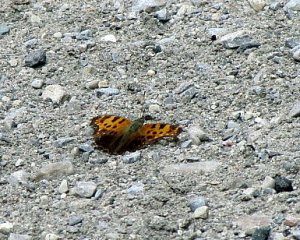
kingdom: Animalia
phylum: Arthropoda
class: Insecta
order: Lepidoptera
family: Nymphalidae
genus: Polygonia
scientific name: Polygonia comma
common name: Eastern Comma
